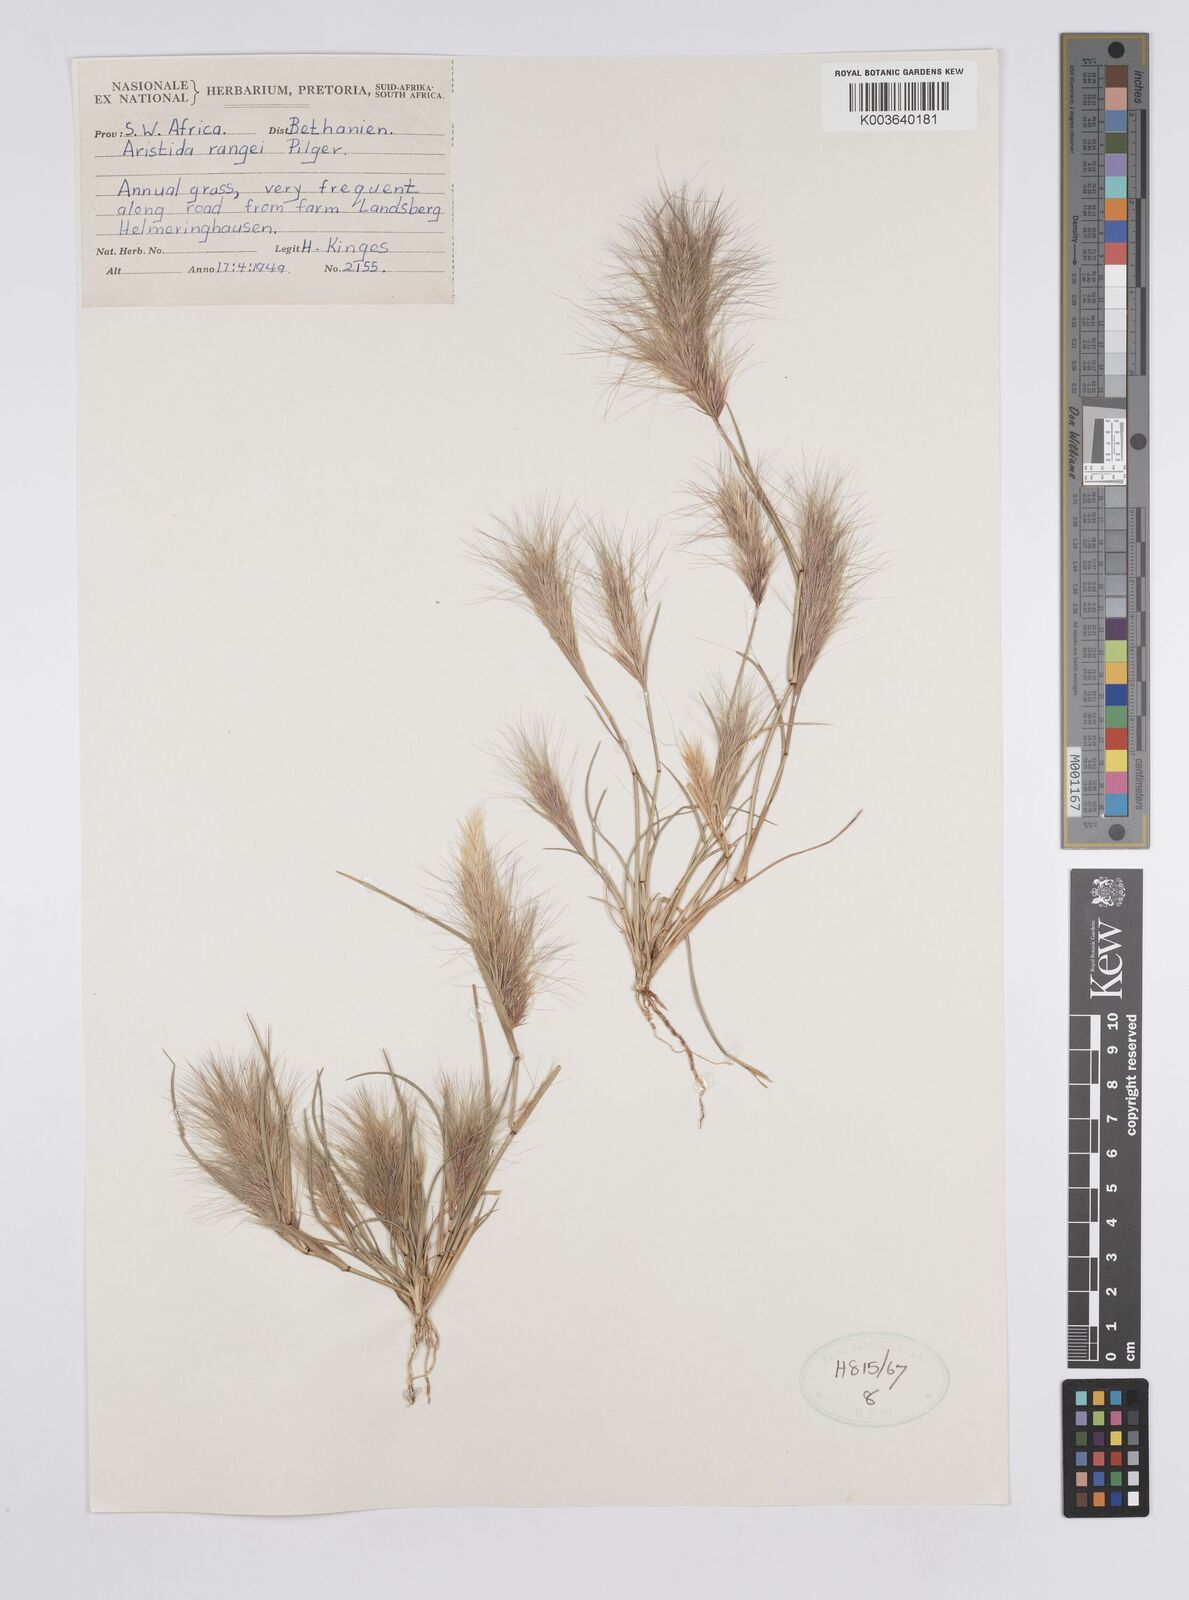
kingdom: Plantae
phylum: Tracheophyta
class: Liliopsida
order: Poales
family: Poaceae
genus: Aristida
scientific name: Aristida congesta
